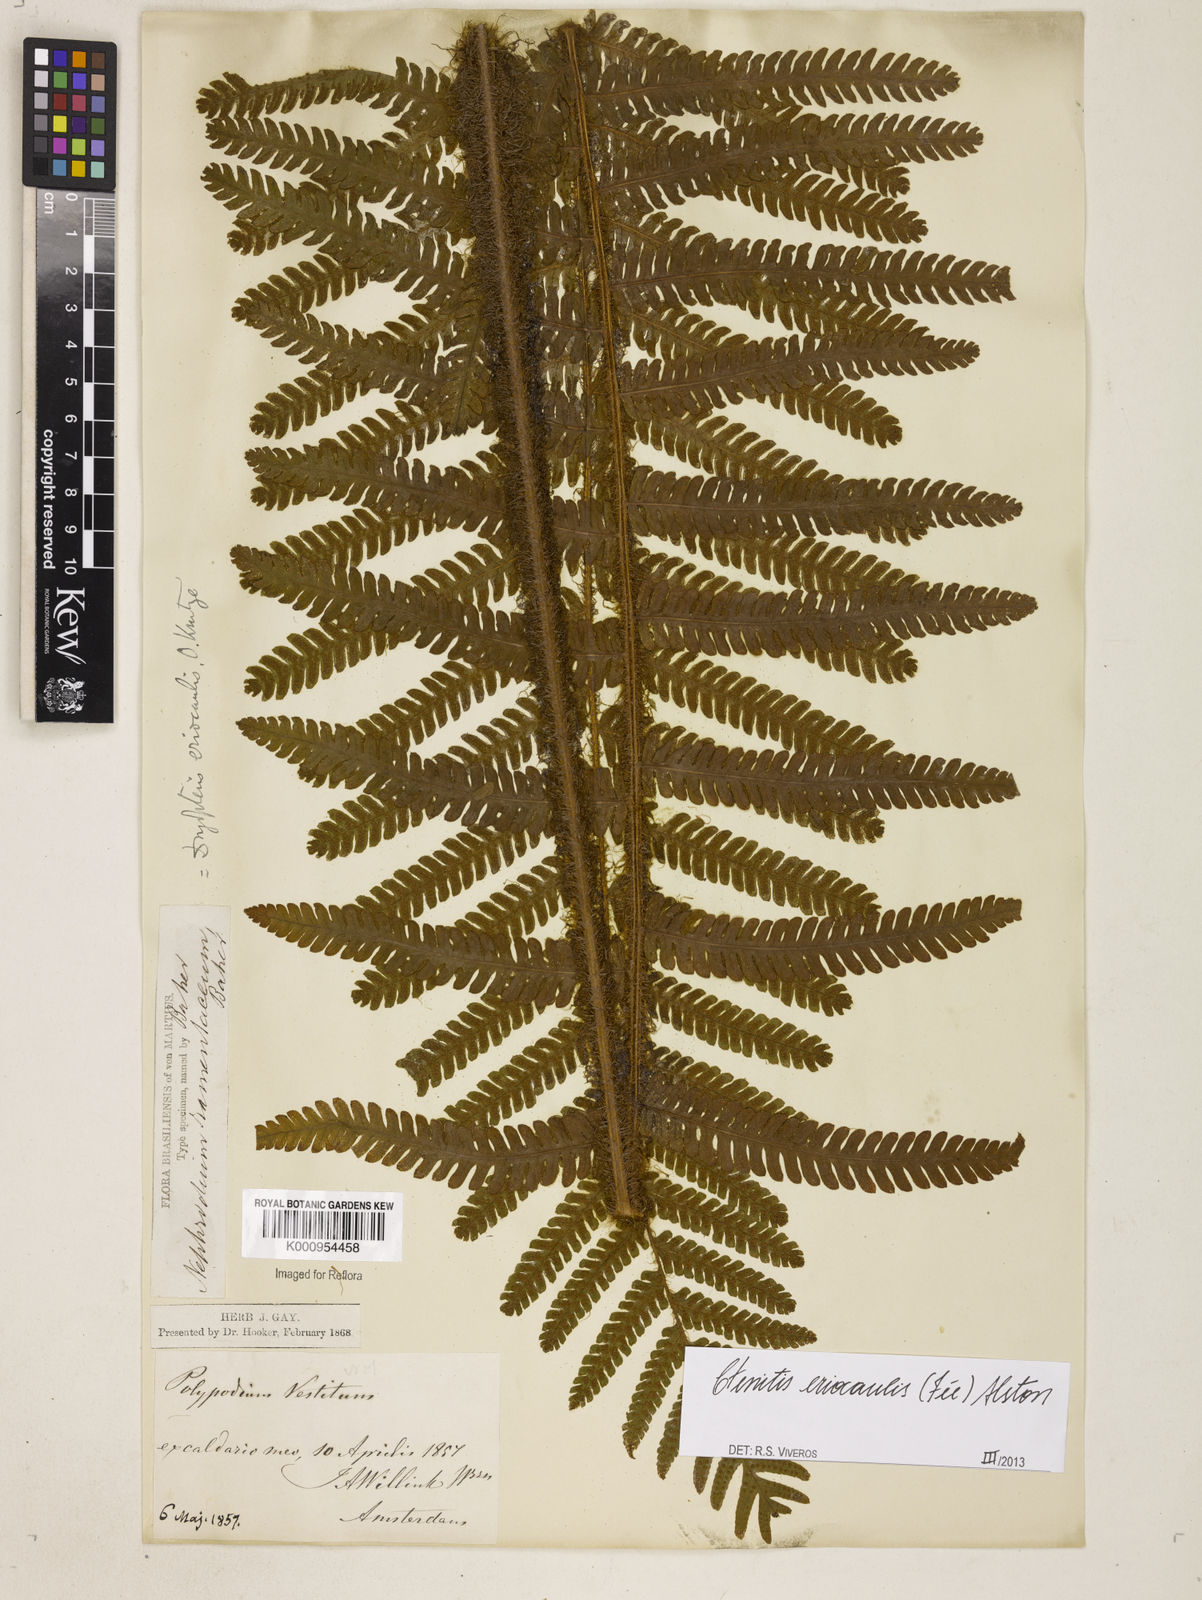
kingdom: Plantae
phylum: Tracheophyta
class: Polypodiopsida
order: Polypodiales
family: Dryopteridaceae
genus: Ctenitis
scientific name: Ctenitis
